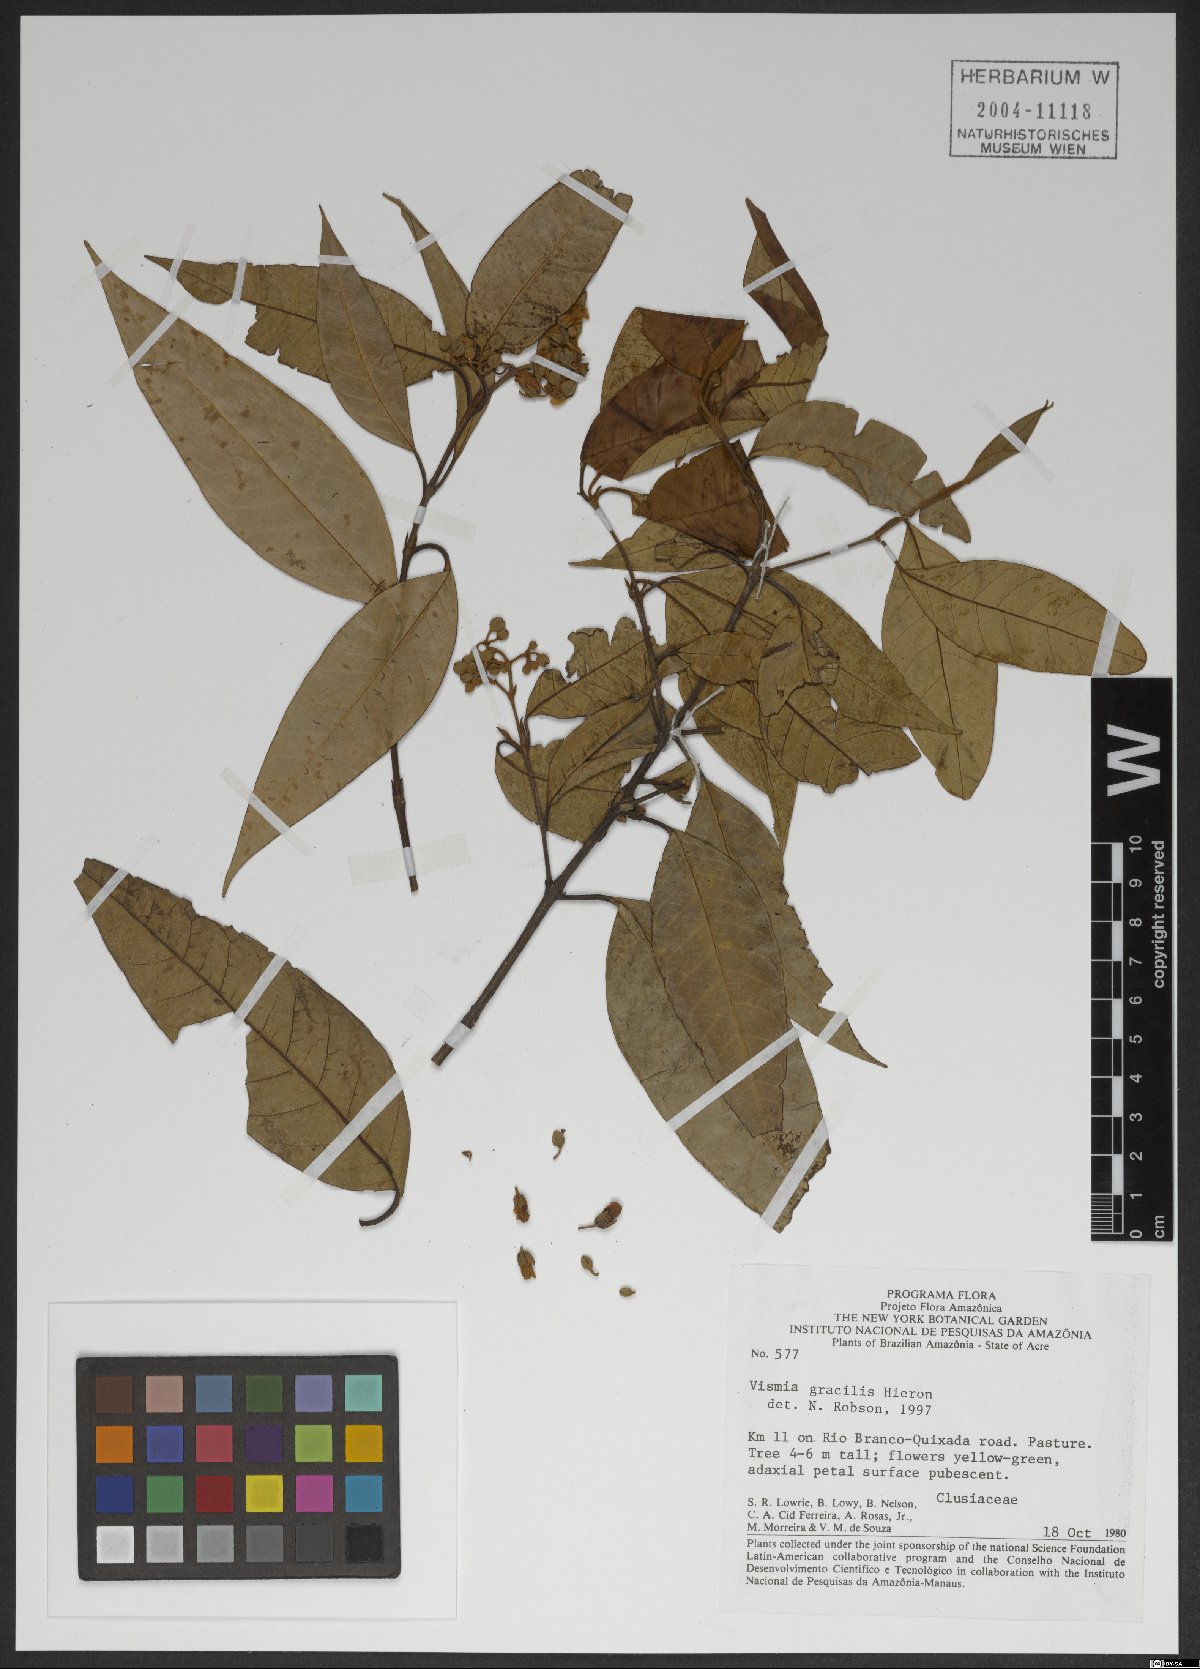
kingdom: Plantae
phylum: Tracheophyta
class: Magnoliopsida
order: Malpighiales
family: Hypericaceae
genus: Vismia
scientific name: Vismia gracilis
